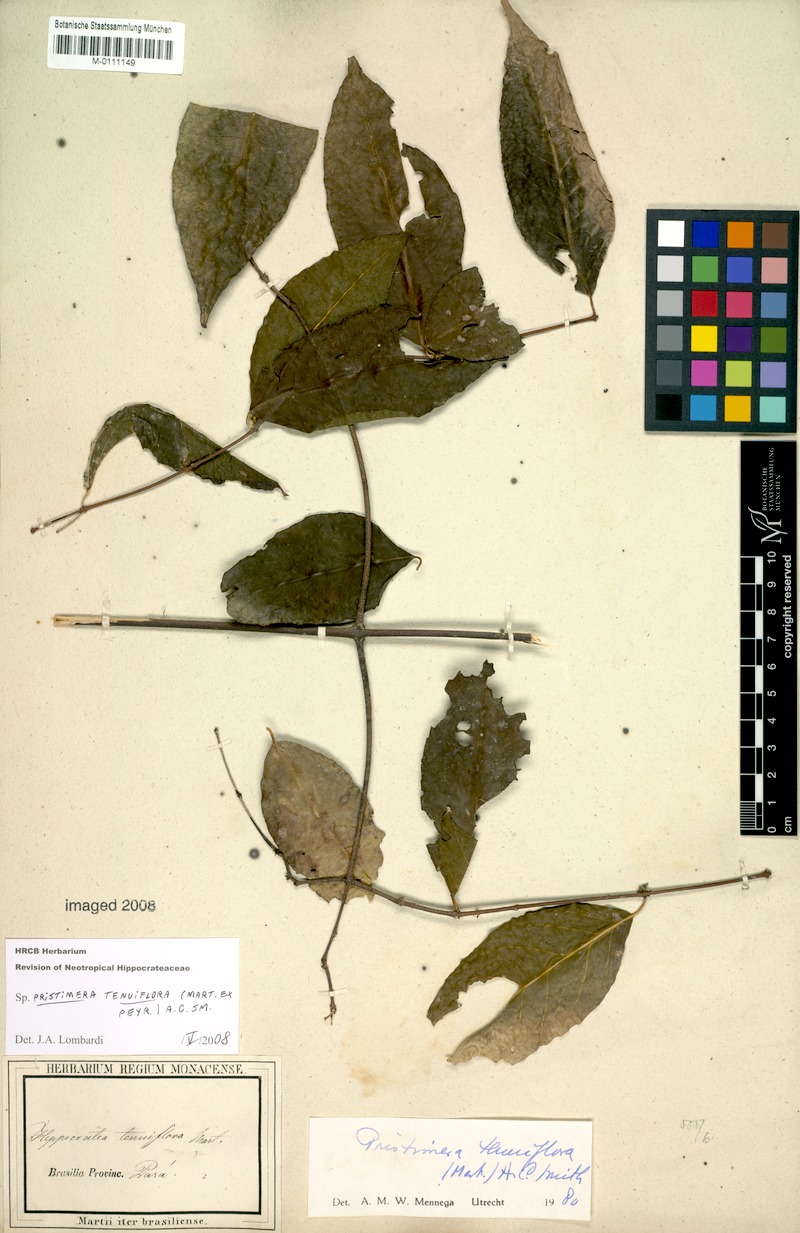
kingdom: Plantae
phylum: Tracheophyta
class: Magnoliopsida
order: Celastrales
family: Celastraceae
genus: Pristimera
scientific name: Pristimera tenuiflora
